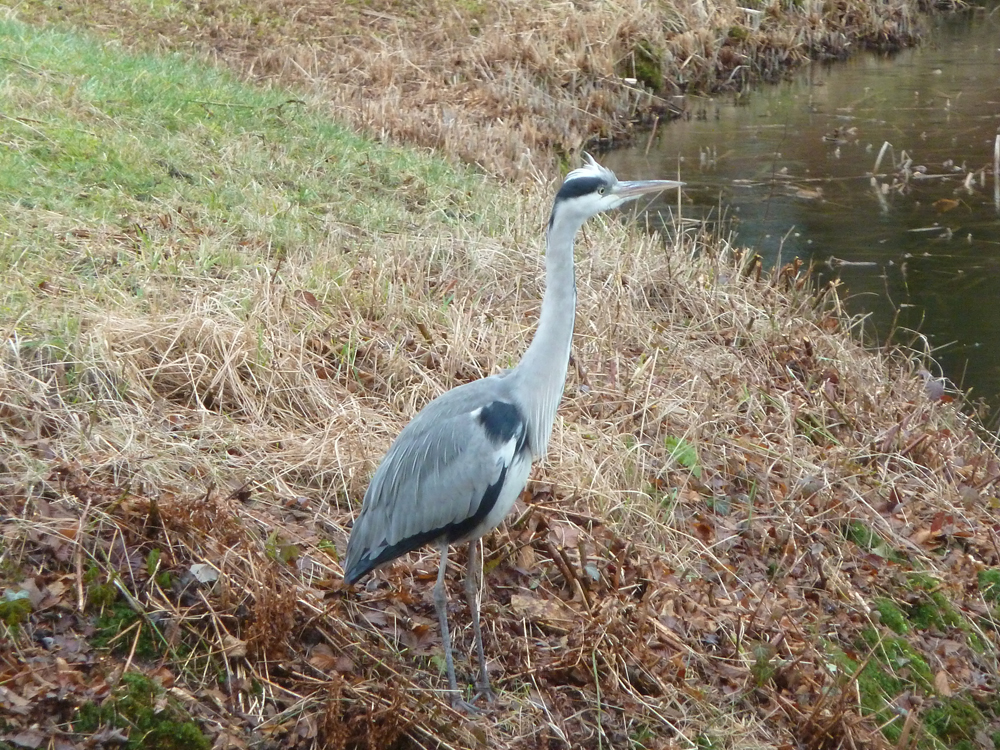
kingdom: Animalia
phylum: Chordata
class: Aves
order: Pelecaniformes
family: Ardeidae
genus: Ardea
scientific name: Ardea cinerea
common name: Grey heron
